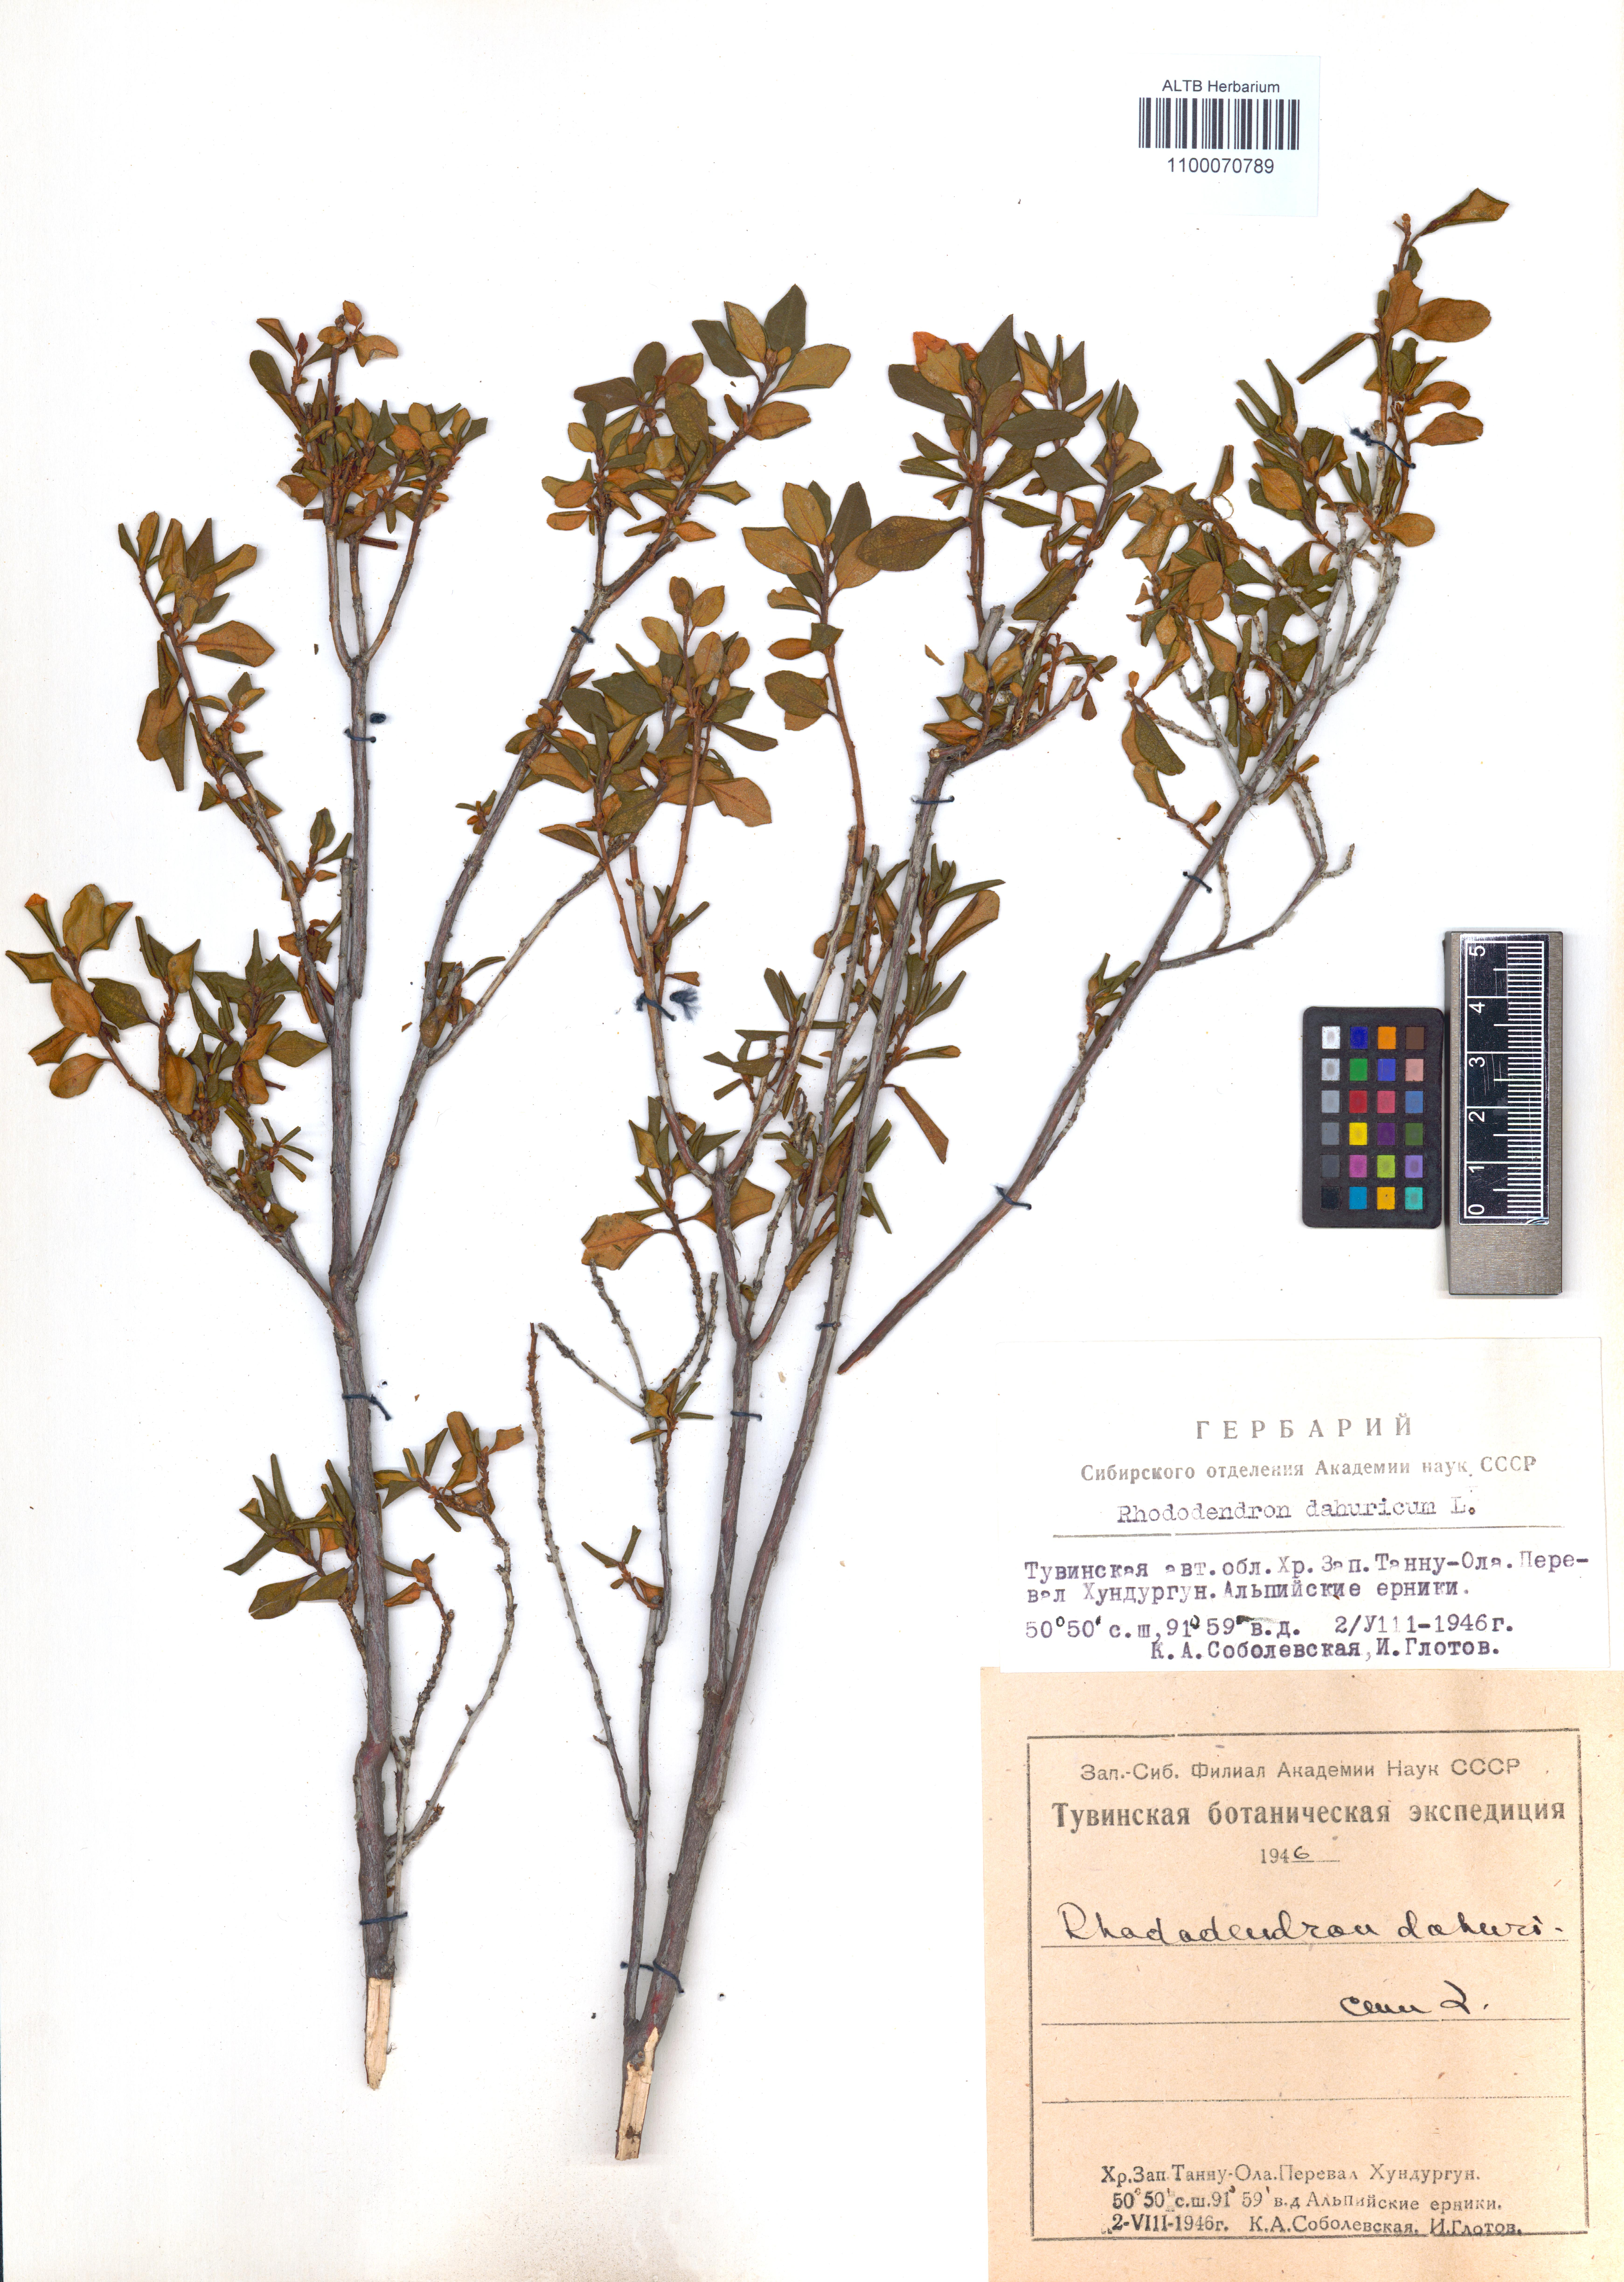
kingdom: Plantae
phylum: Tracheophyta
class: Magnoliopsida
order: Ericales
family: Ericaceae
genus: Rhododendron
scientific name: Rhododendron dauricum
